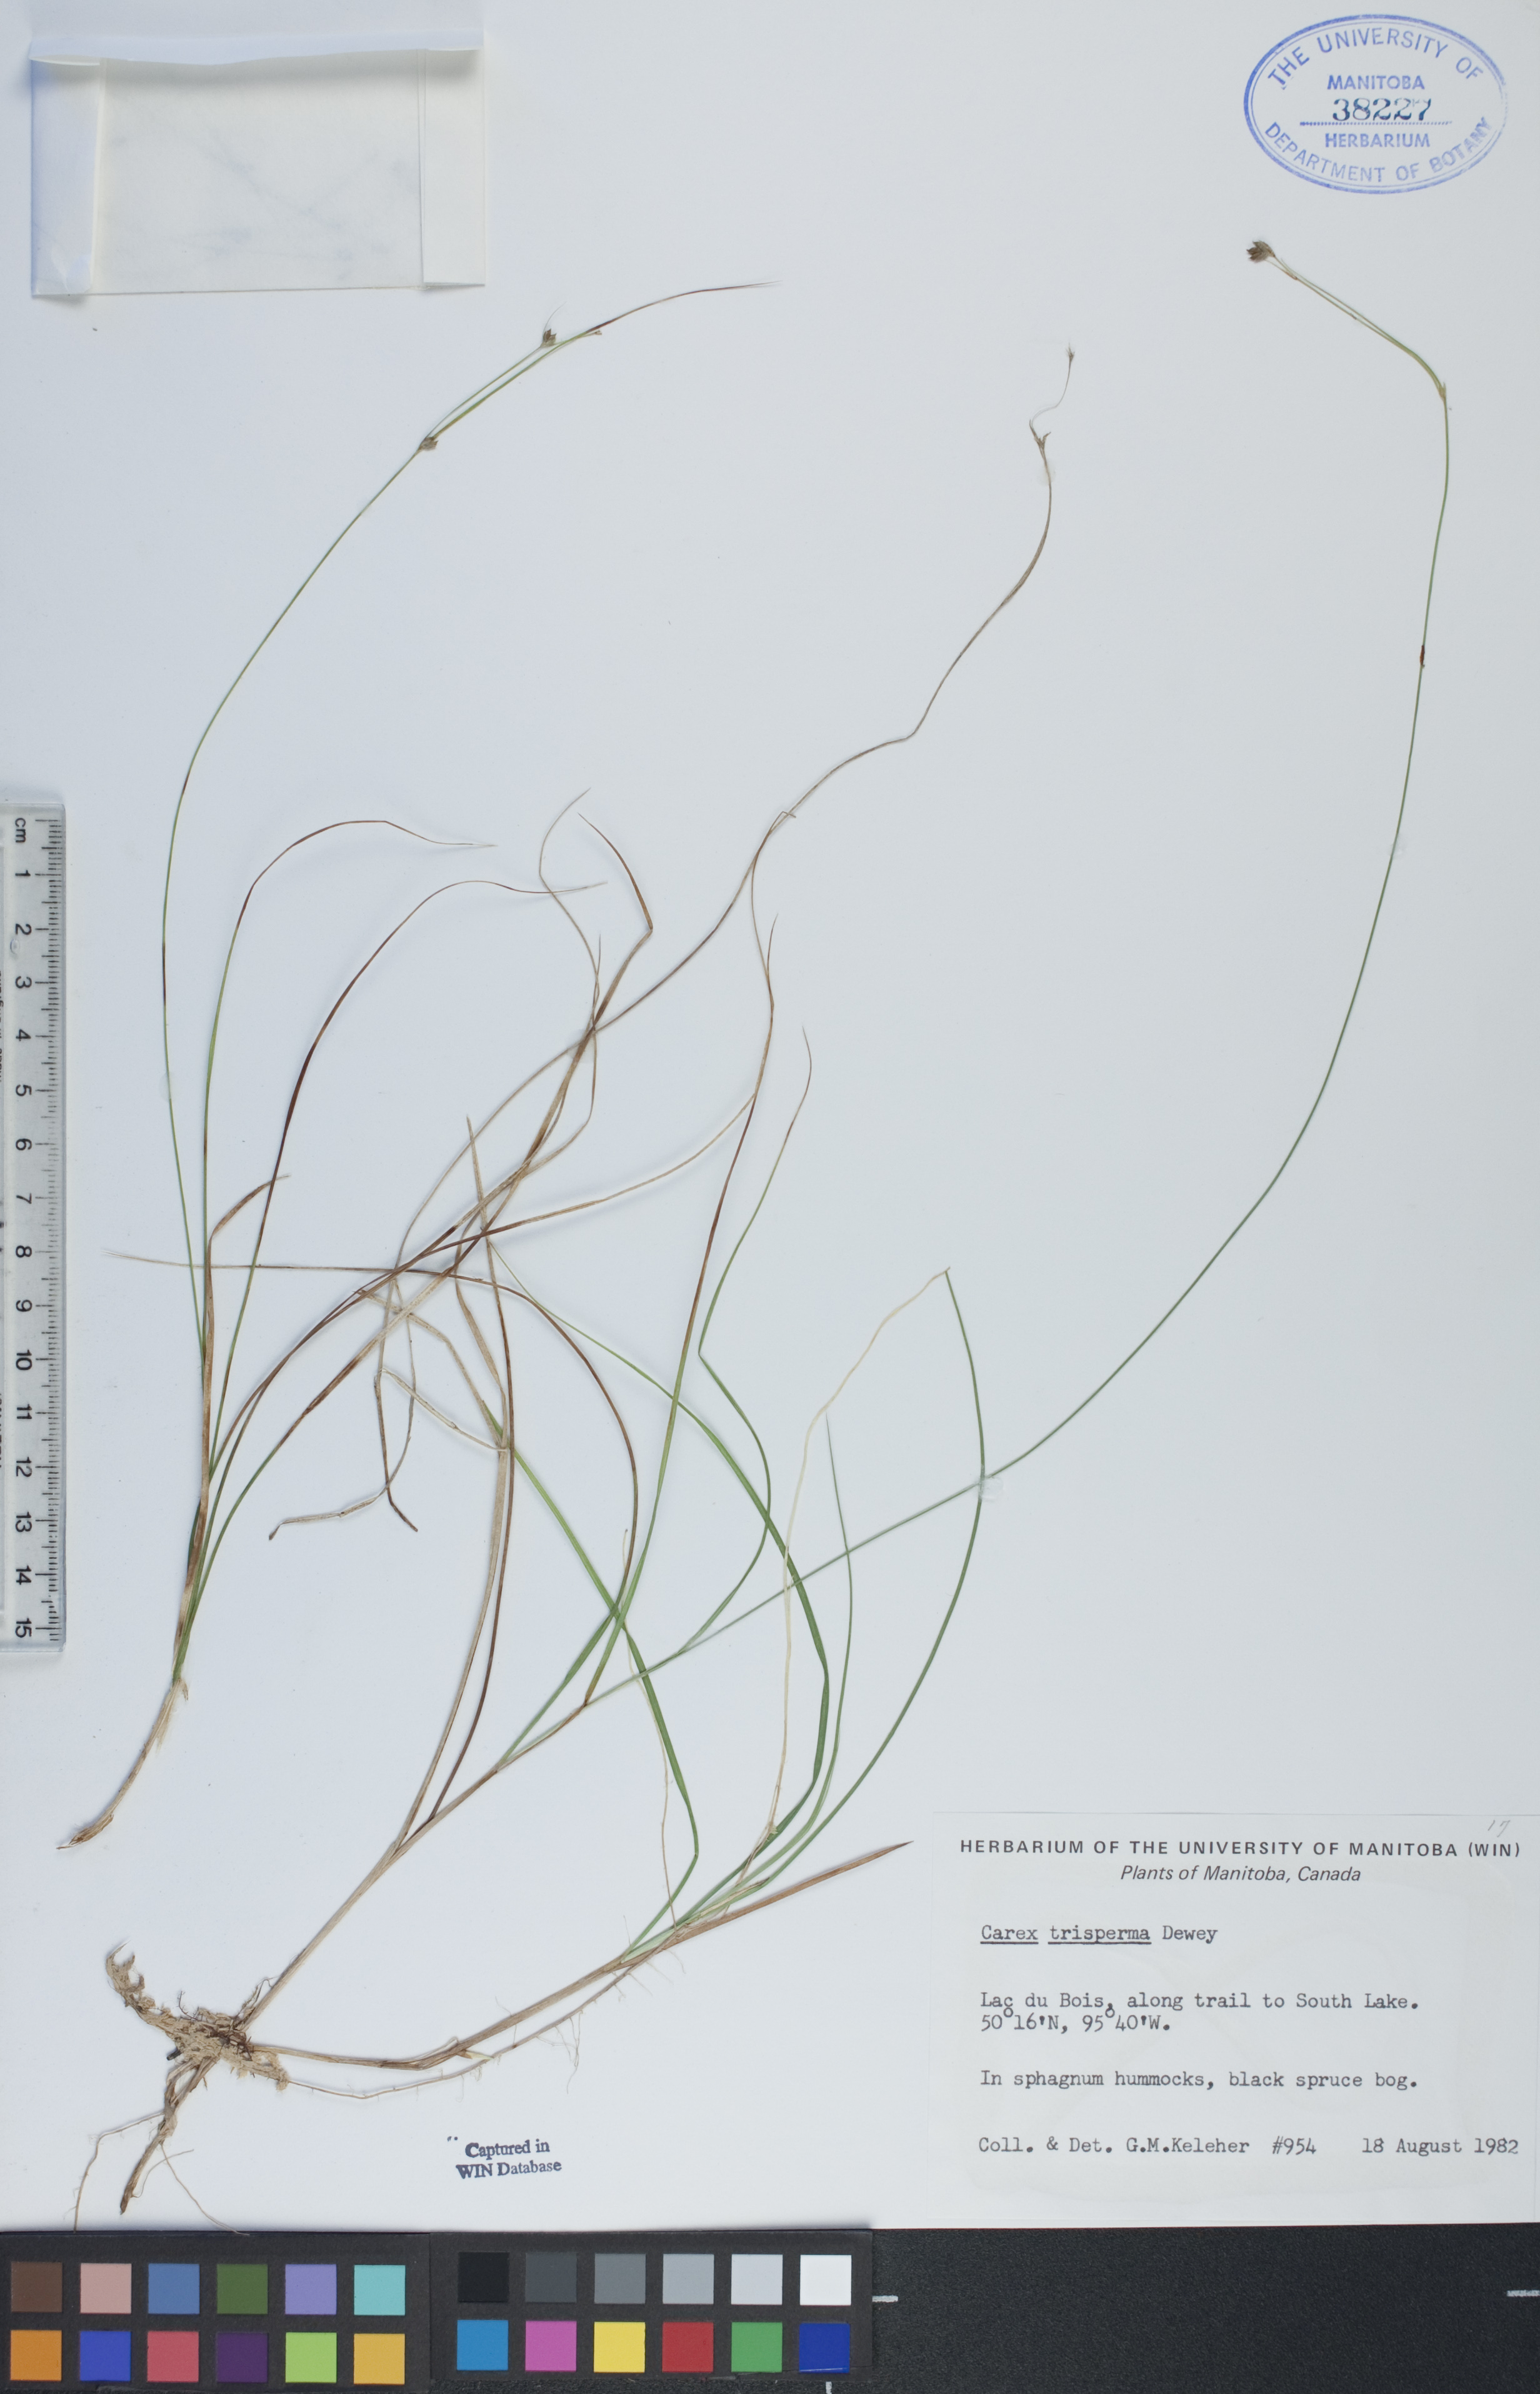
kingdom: Plantae
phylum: Tracheophyta
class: Liliopsida
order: Poales
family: Cyperaceae
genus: Carex
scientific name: Carex trisperma
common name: Three-seeded sedge
